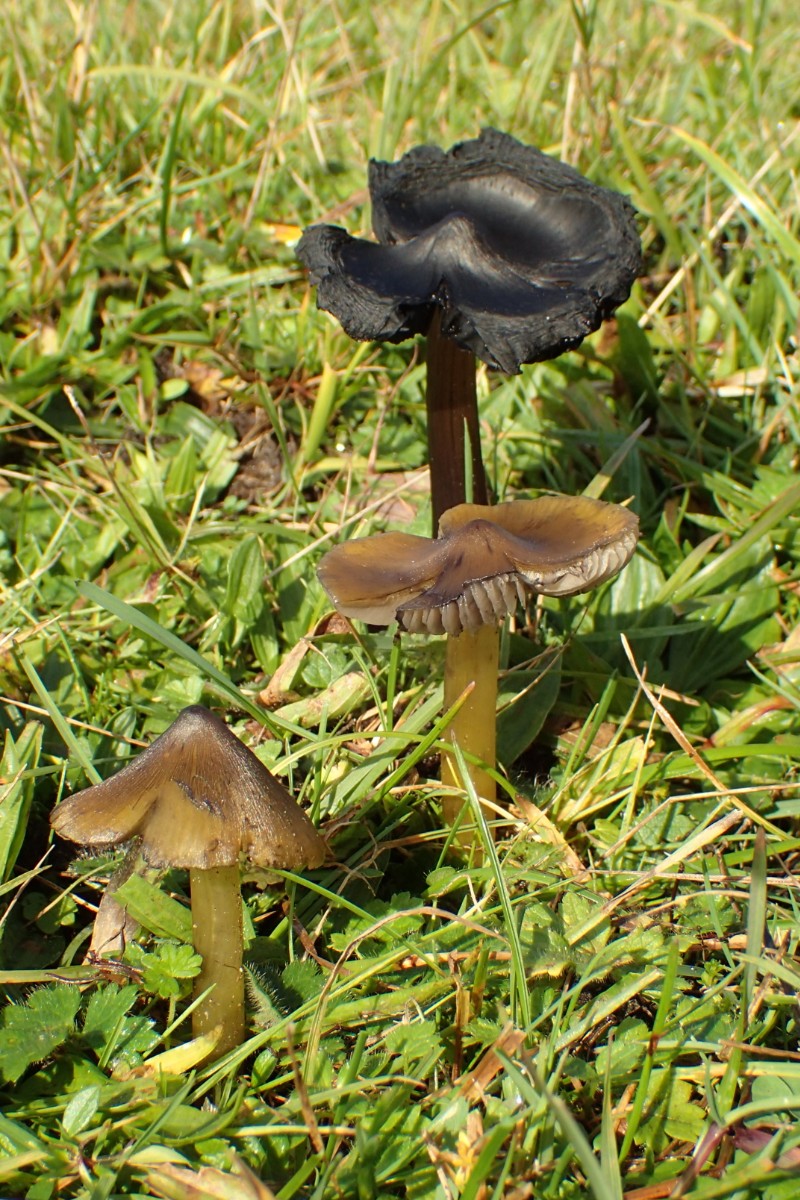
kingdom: Fungi
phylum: Basidiomycota
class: Agaricomycetes
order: Agaricales
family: Hygrophoraceae
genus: Hygrocybe
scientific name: Hygrocybe conica
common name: kegle-vokshat
